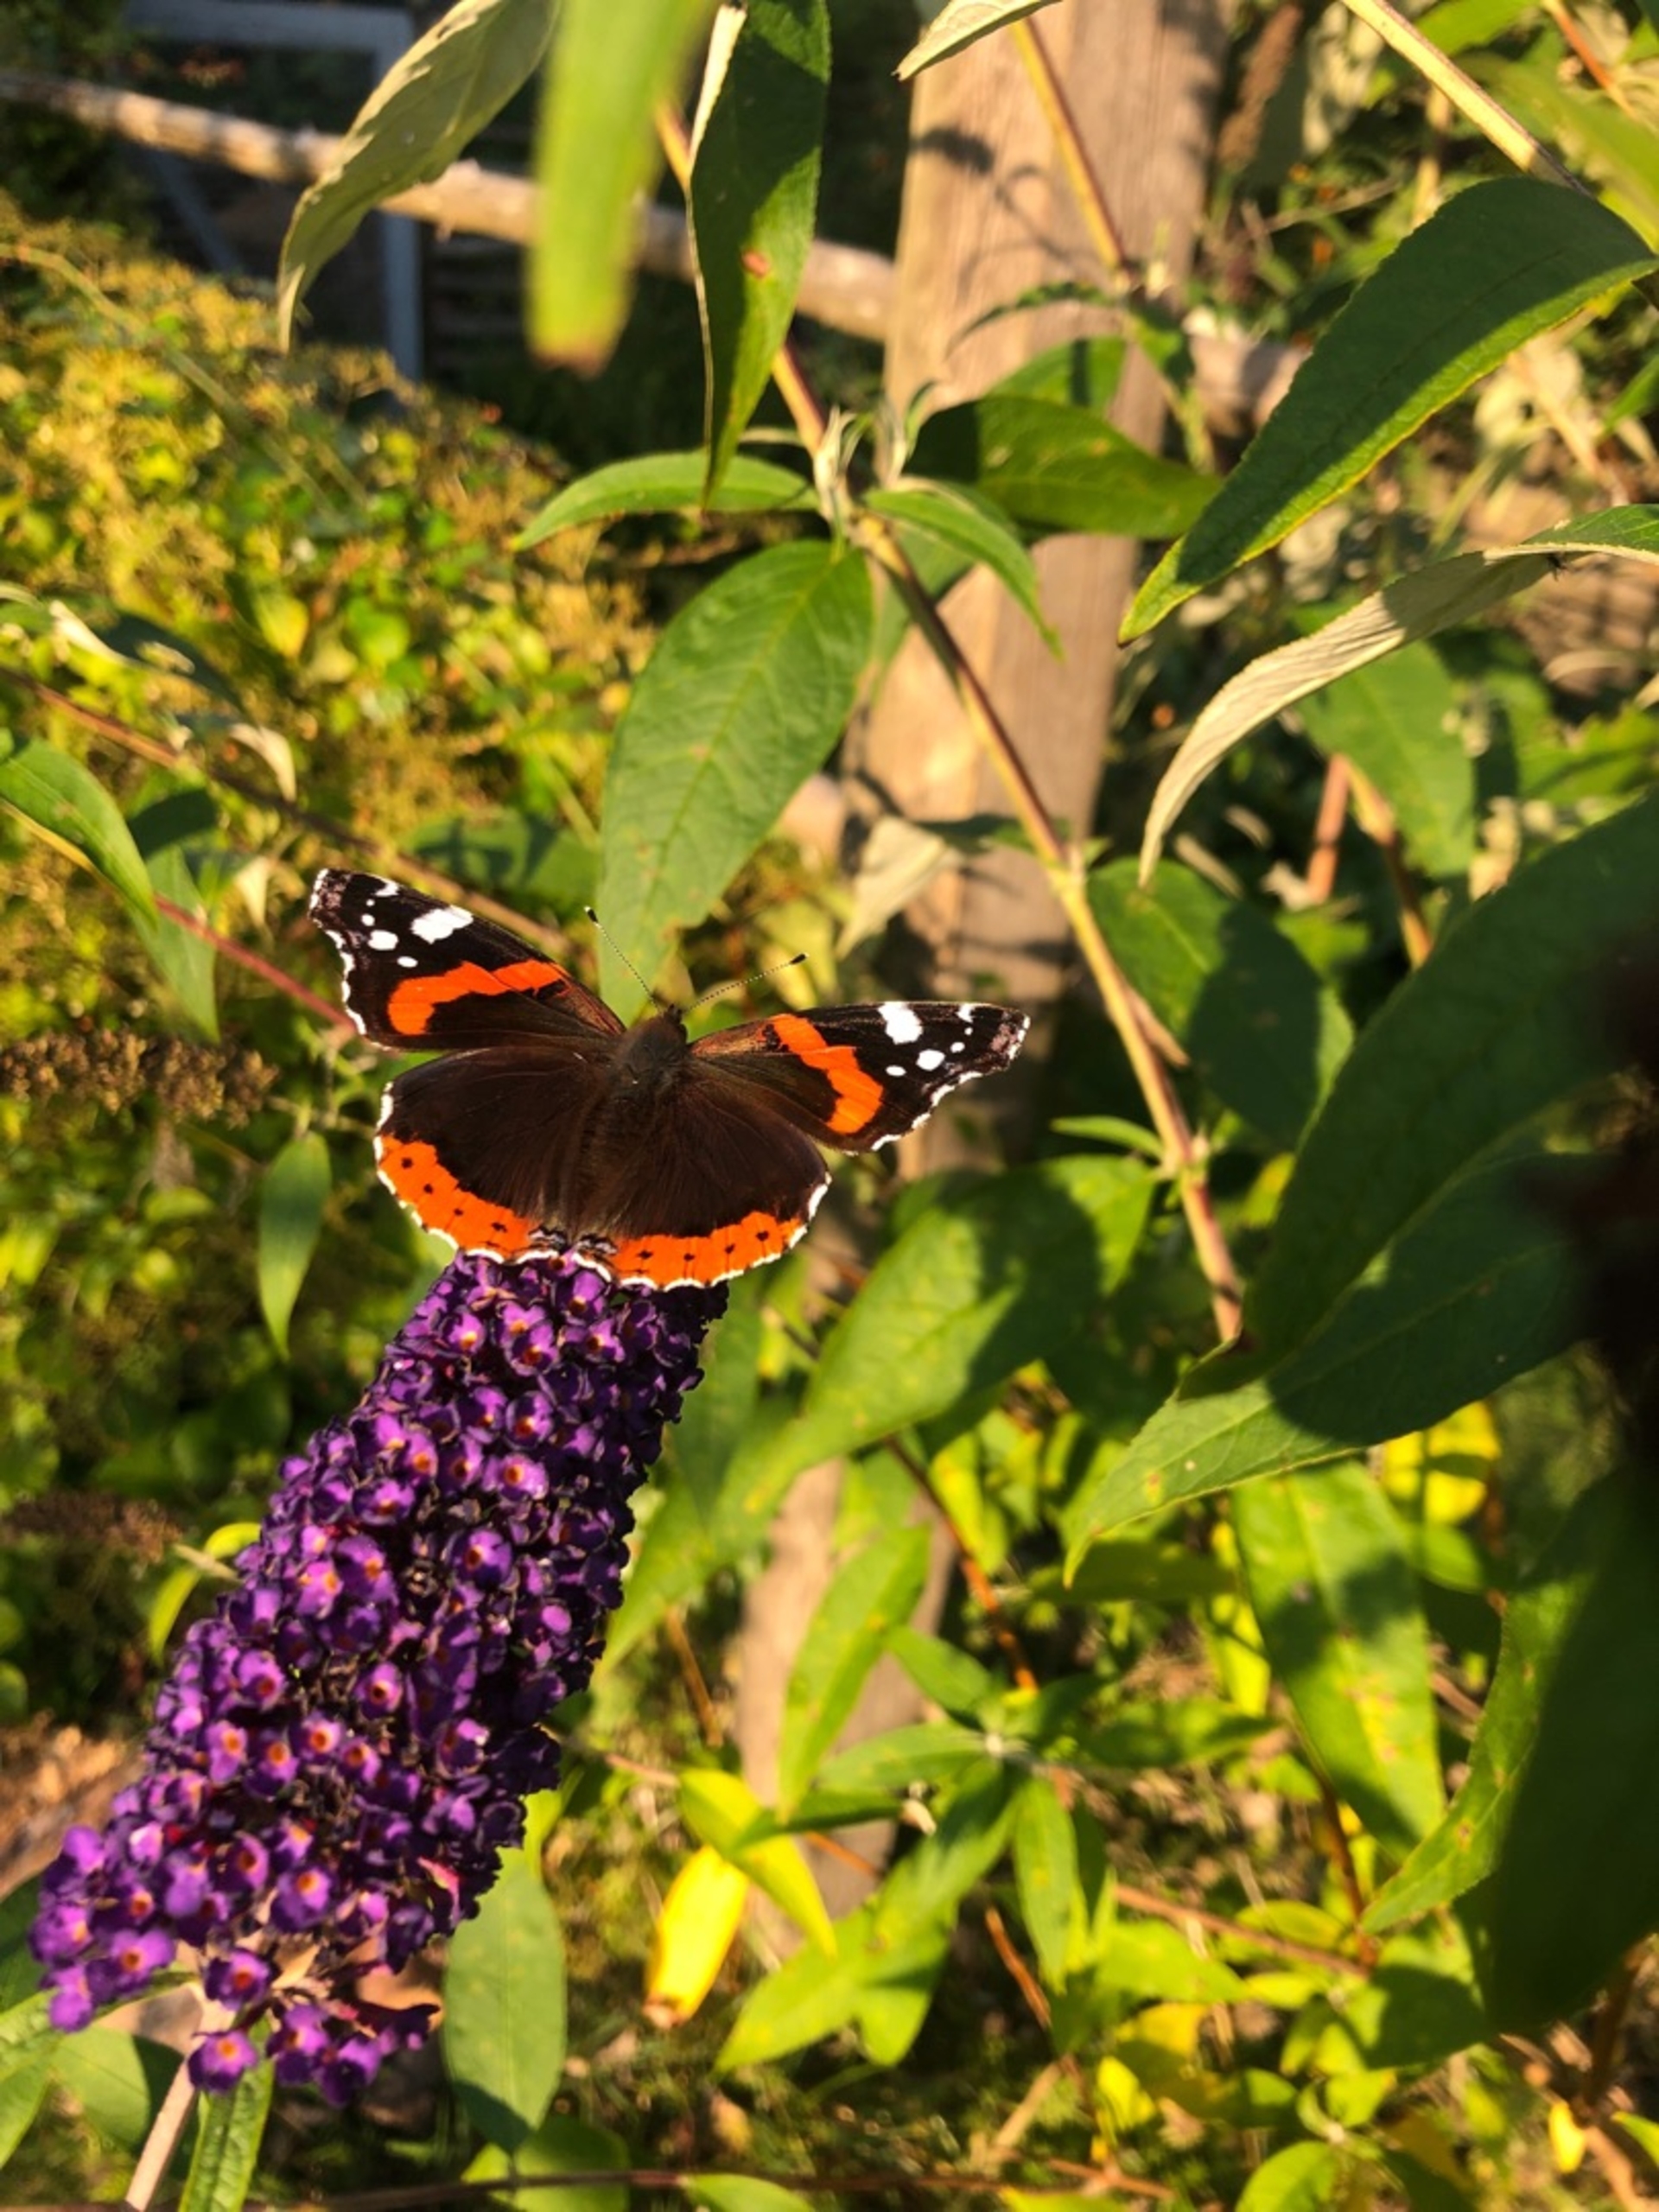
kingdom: Animalia
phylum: Arthropoda
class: Insecta
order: Lepidoptera
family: Nymphalidae
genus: Vanessa
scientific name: Vanessa atalanta
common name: Admiral
